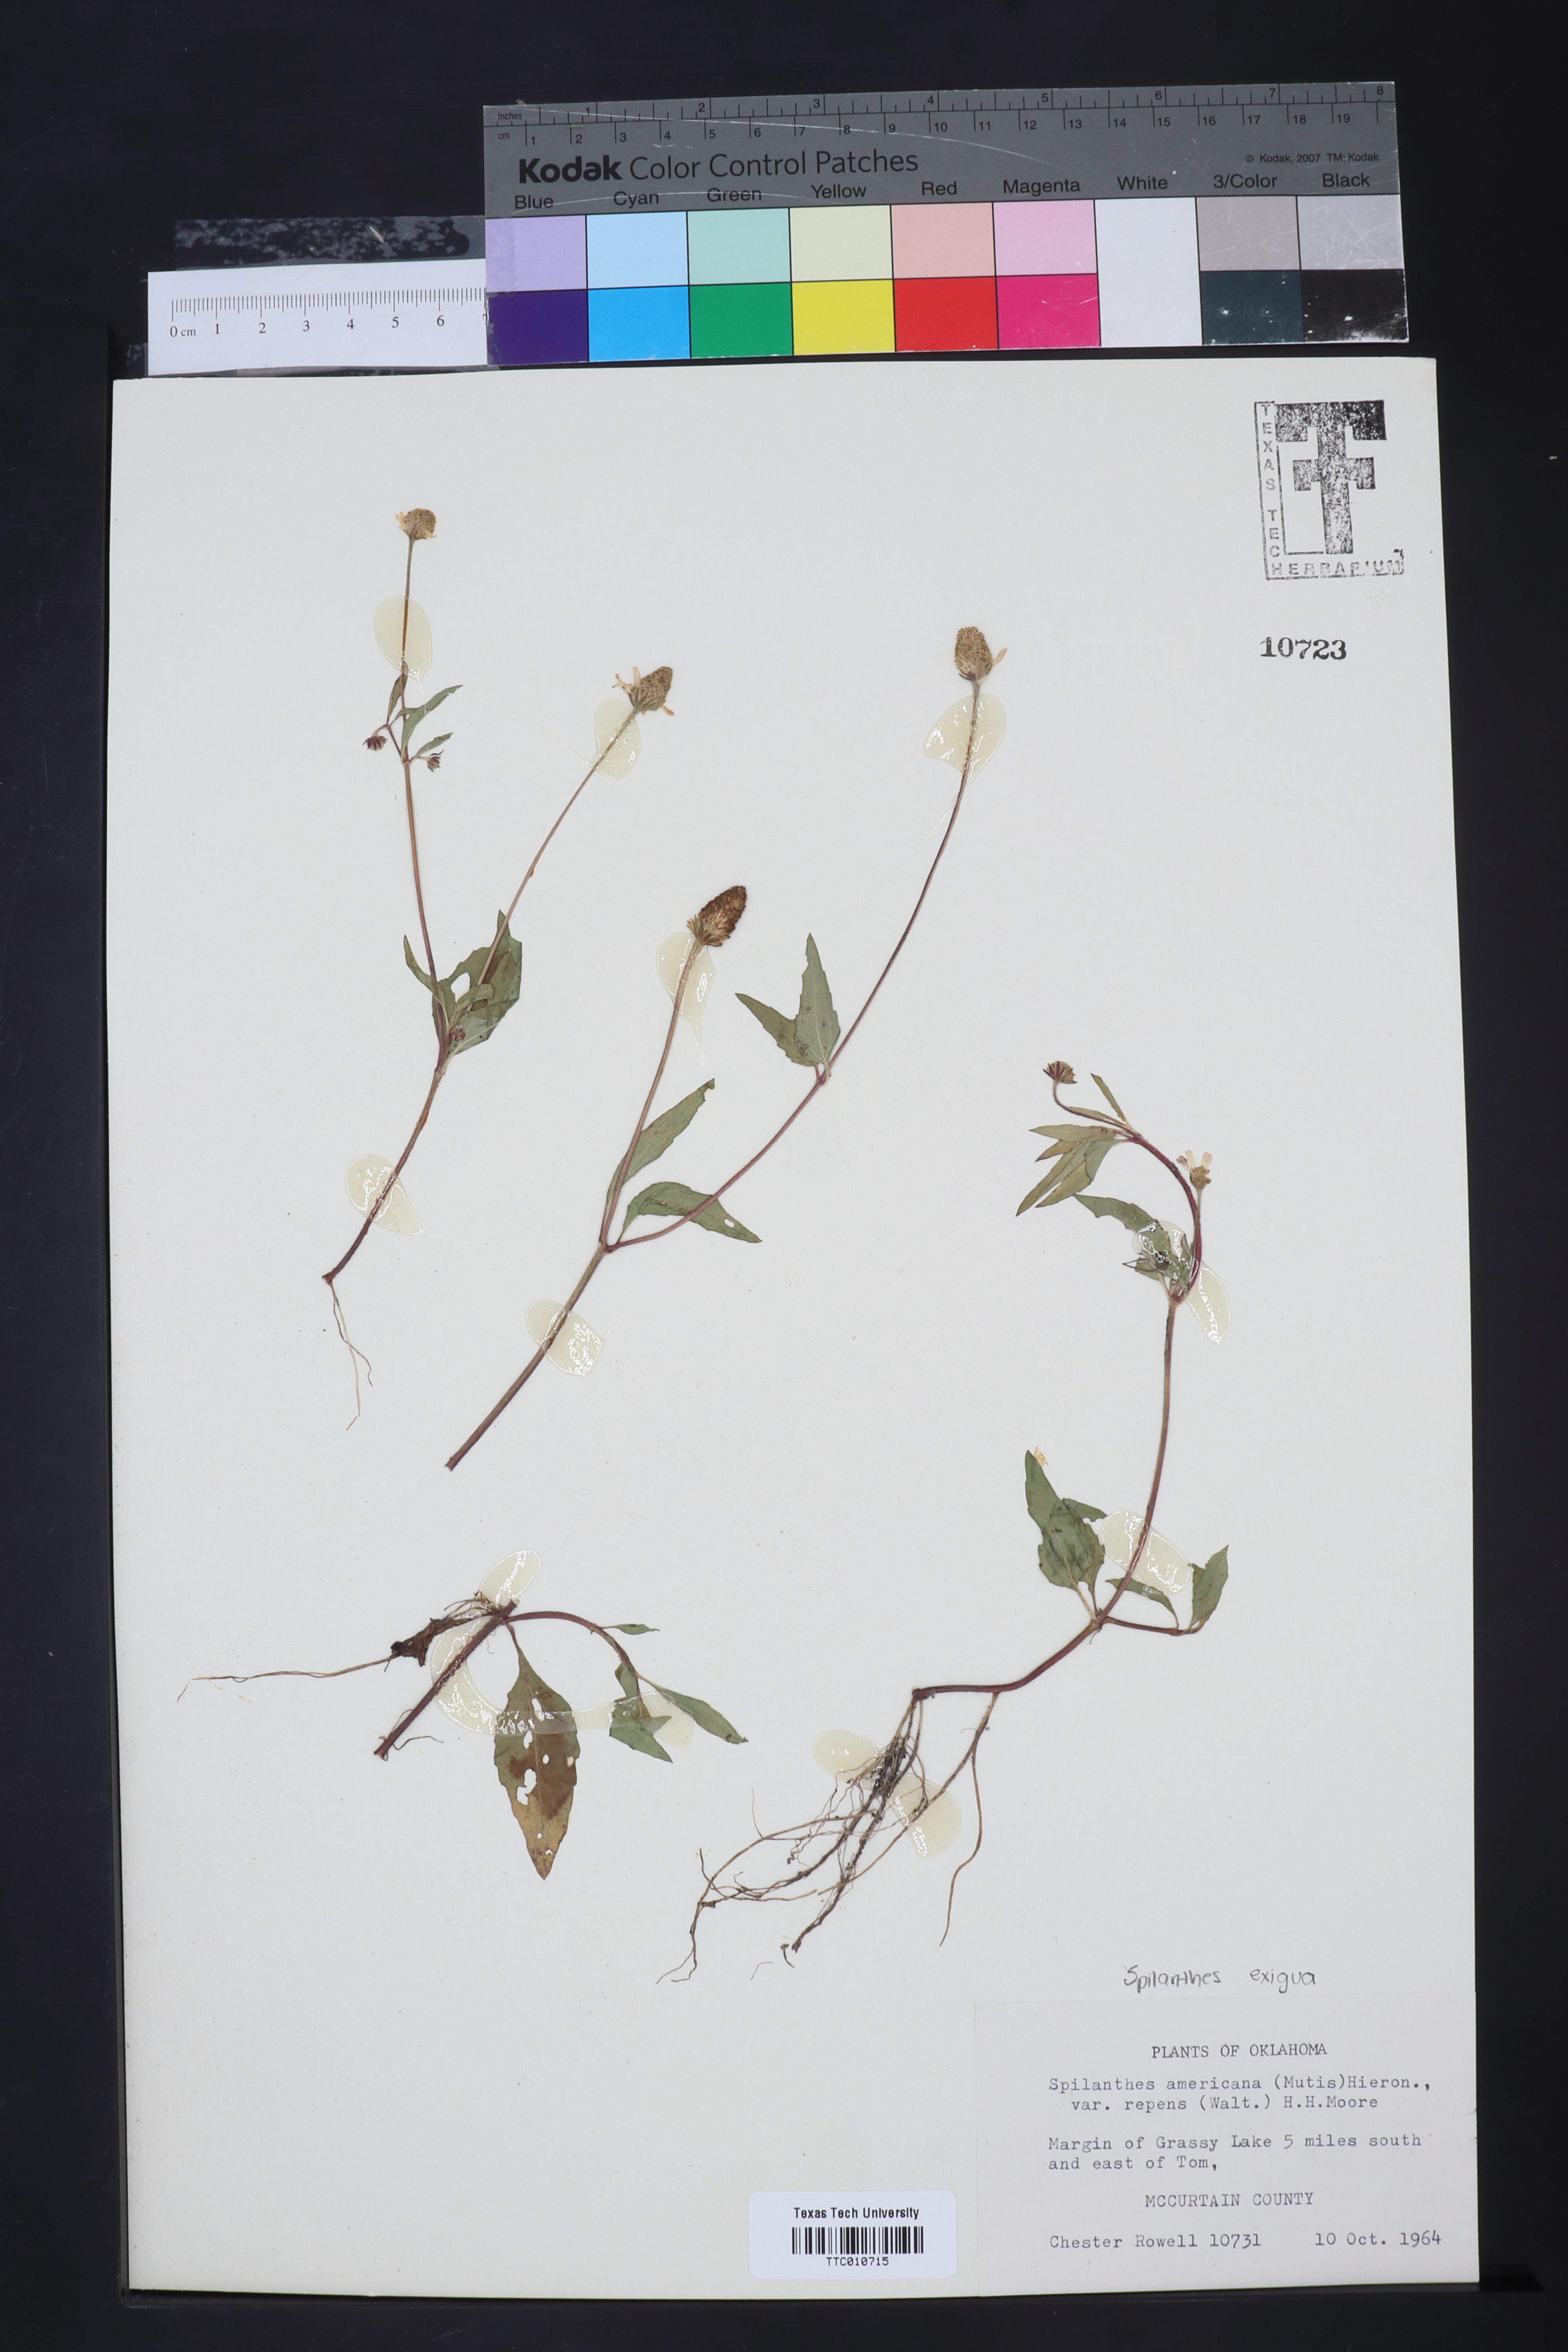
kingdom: Plantae
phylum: Tracheophyta
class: Magnoliopsida
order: Asterales
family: Asteraceae
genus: Acmella
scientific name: Acmella repens
